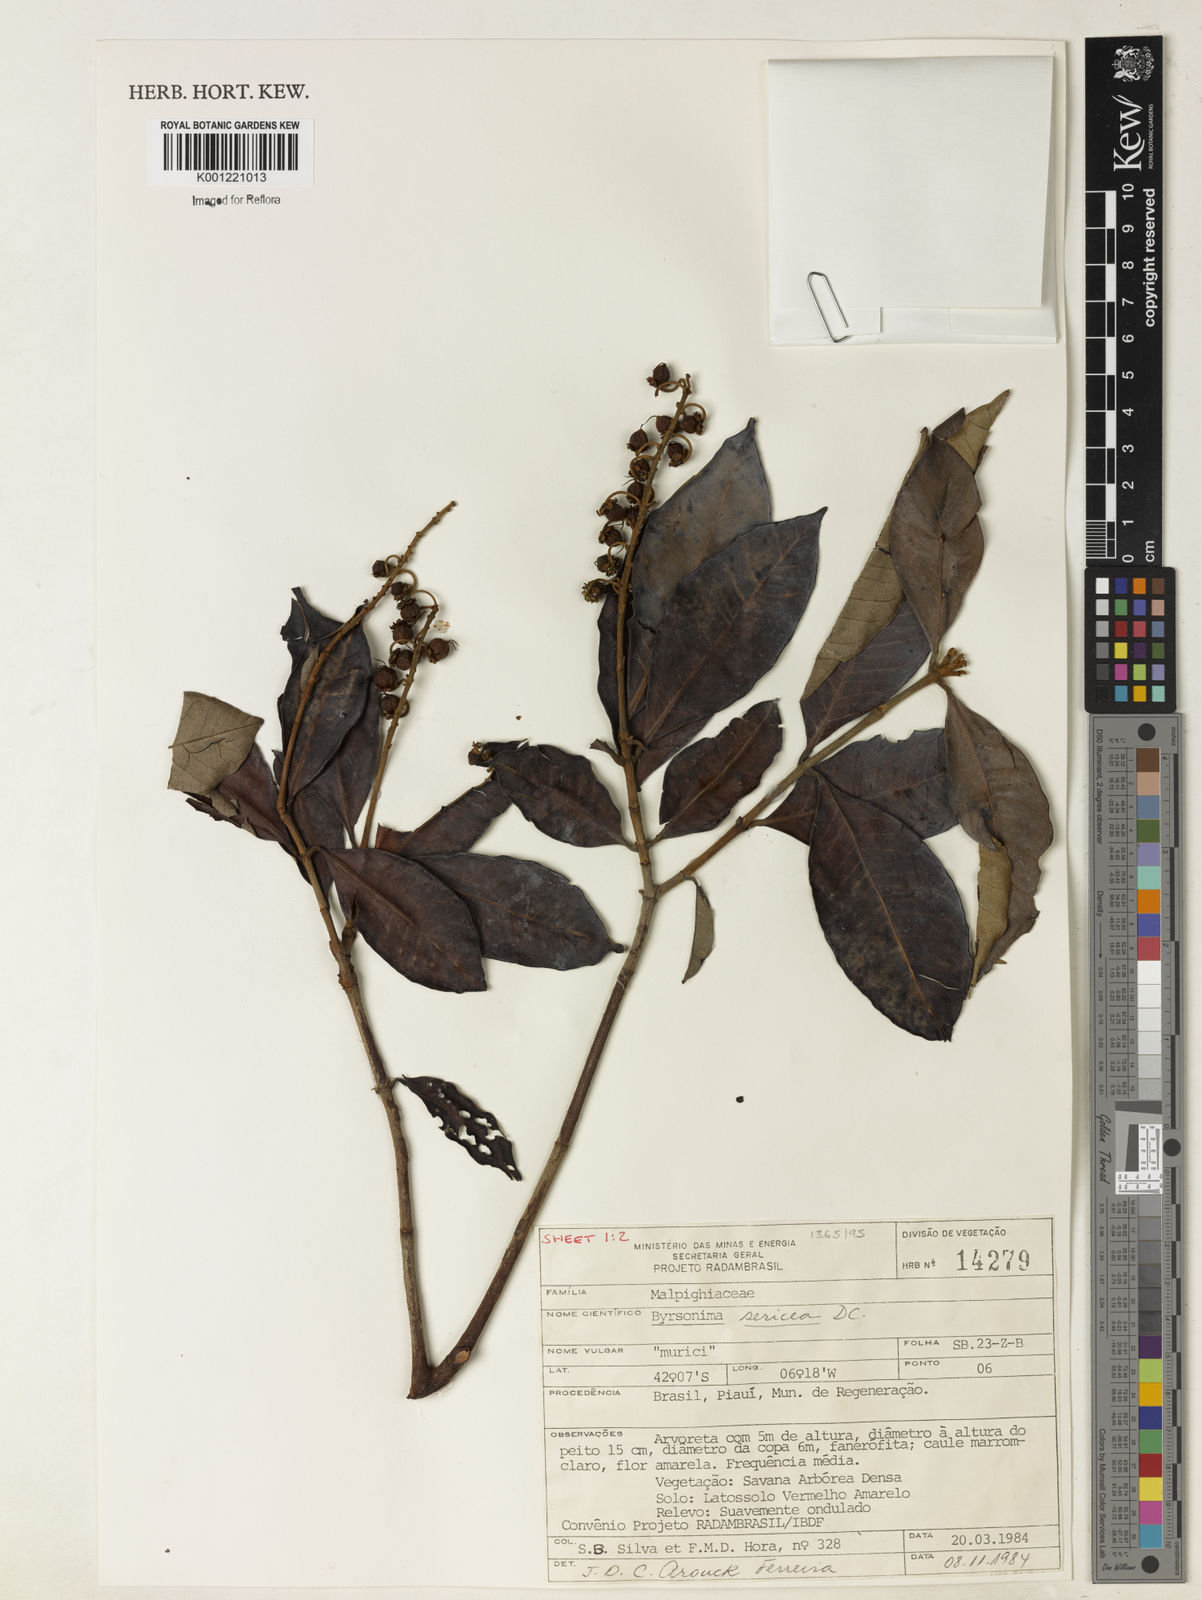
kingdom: Plantae
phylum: Tracheophyta
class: Magnoliopsida
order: Malpighiales
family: Malpighiaceae
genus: Byrsonima
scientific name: Byrsonima sericea
